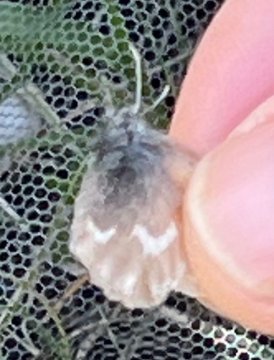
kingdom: Animalia
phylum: Arthropoda
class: Insecta
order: Lepidoptera
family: Nymphalidae
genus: Coenonympha
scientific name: Coenonympha tullia
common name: Large Heath
